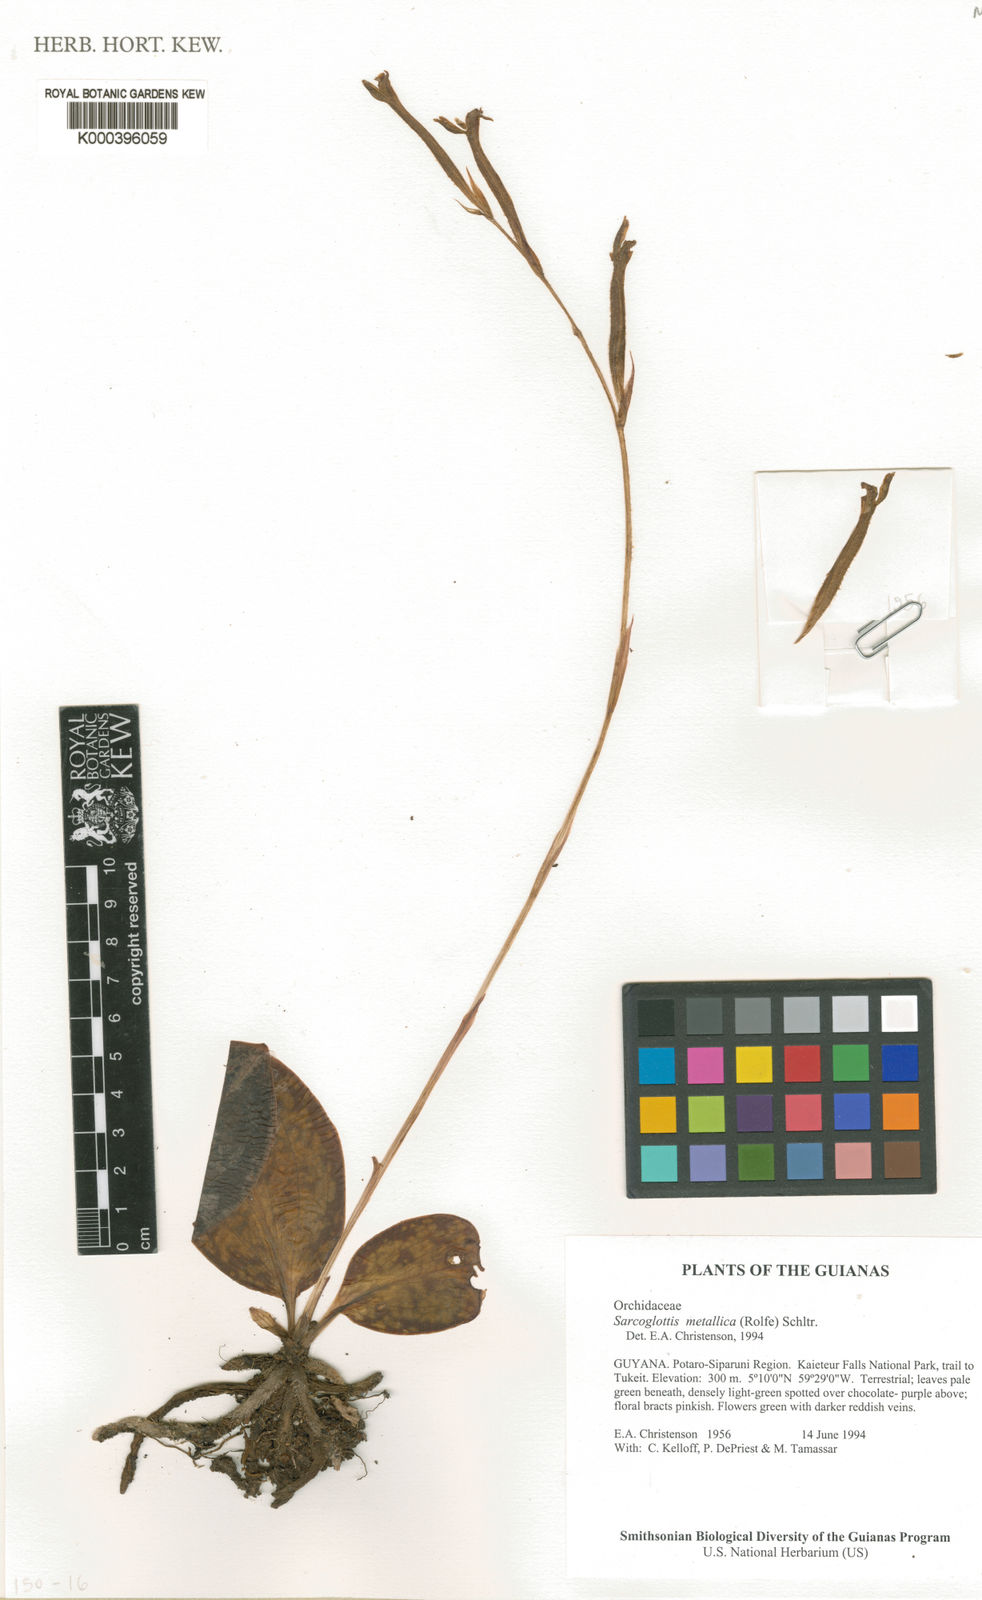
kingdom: Plantae
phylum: Tracheophyta
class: Liliopsida
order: Asparagales
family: Orchidaceae
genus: Sarcoglottis
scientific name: Sarcoglottis metallica
